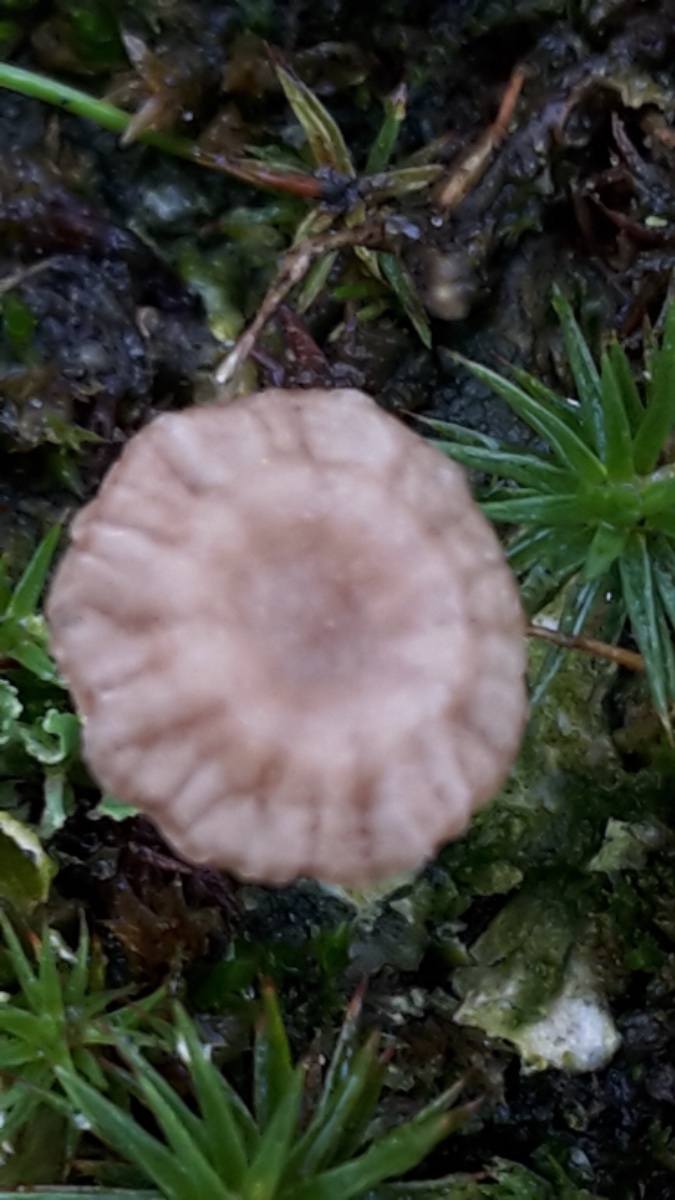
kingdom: Fungi
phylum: Basidiomycota
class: Agaricomycetes
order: Agaricales
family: Hygrophoraceae
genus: Arrhenia
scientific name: Arrhenia peltigerina
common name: skjoldlav-fontænehat
